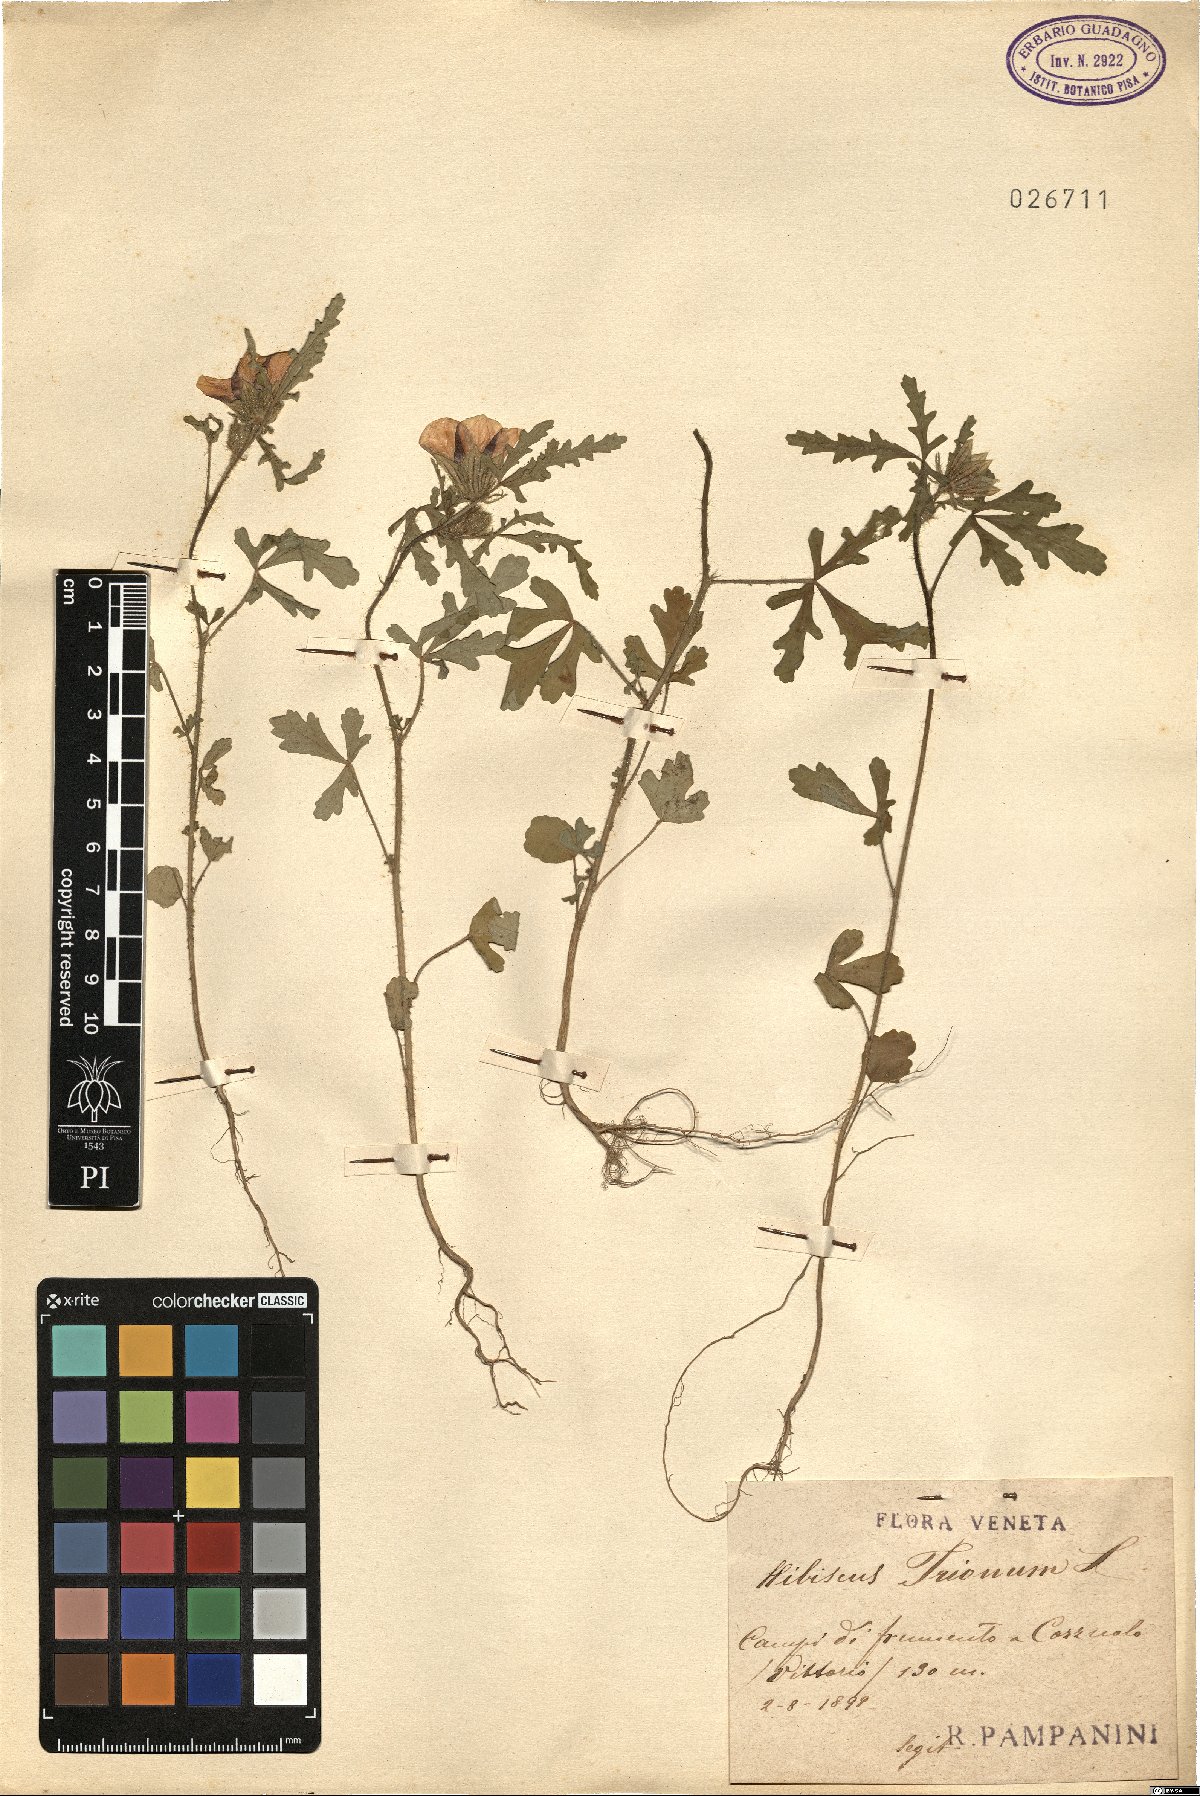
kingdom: Plantae
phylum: Tracheophyta
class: Magnoliopsida
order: Malvales
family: Malvaceae
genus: Hibiscus
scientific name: Hibiscus trionum
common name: Bladder ketmia
